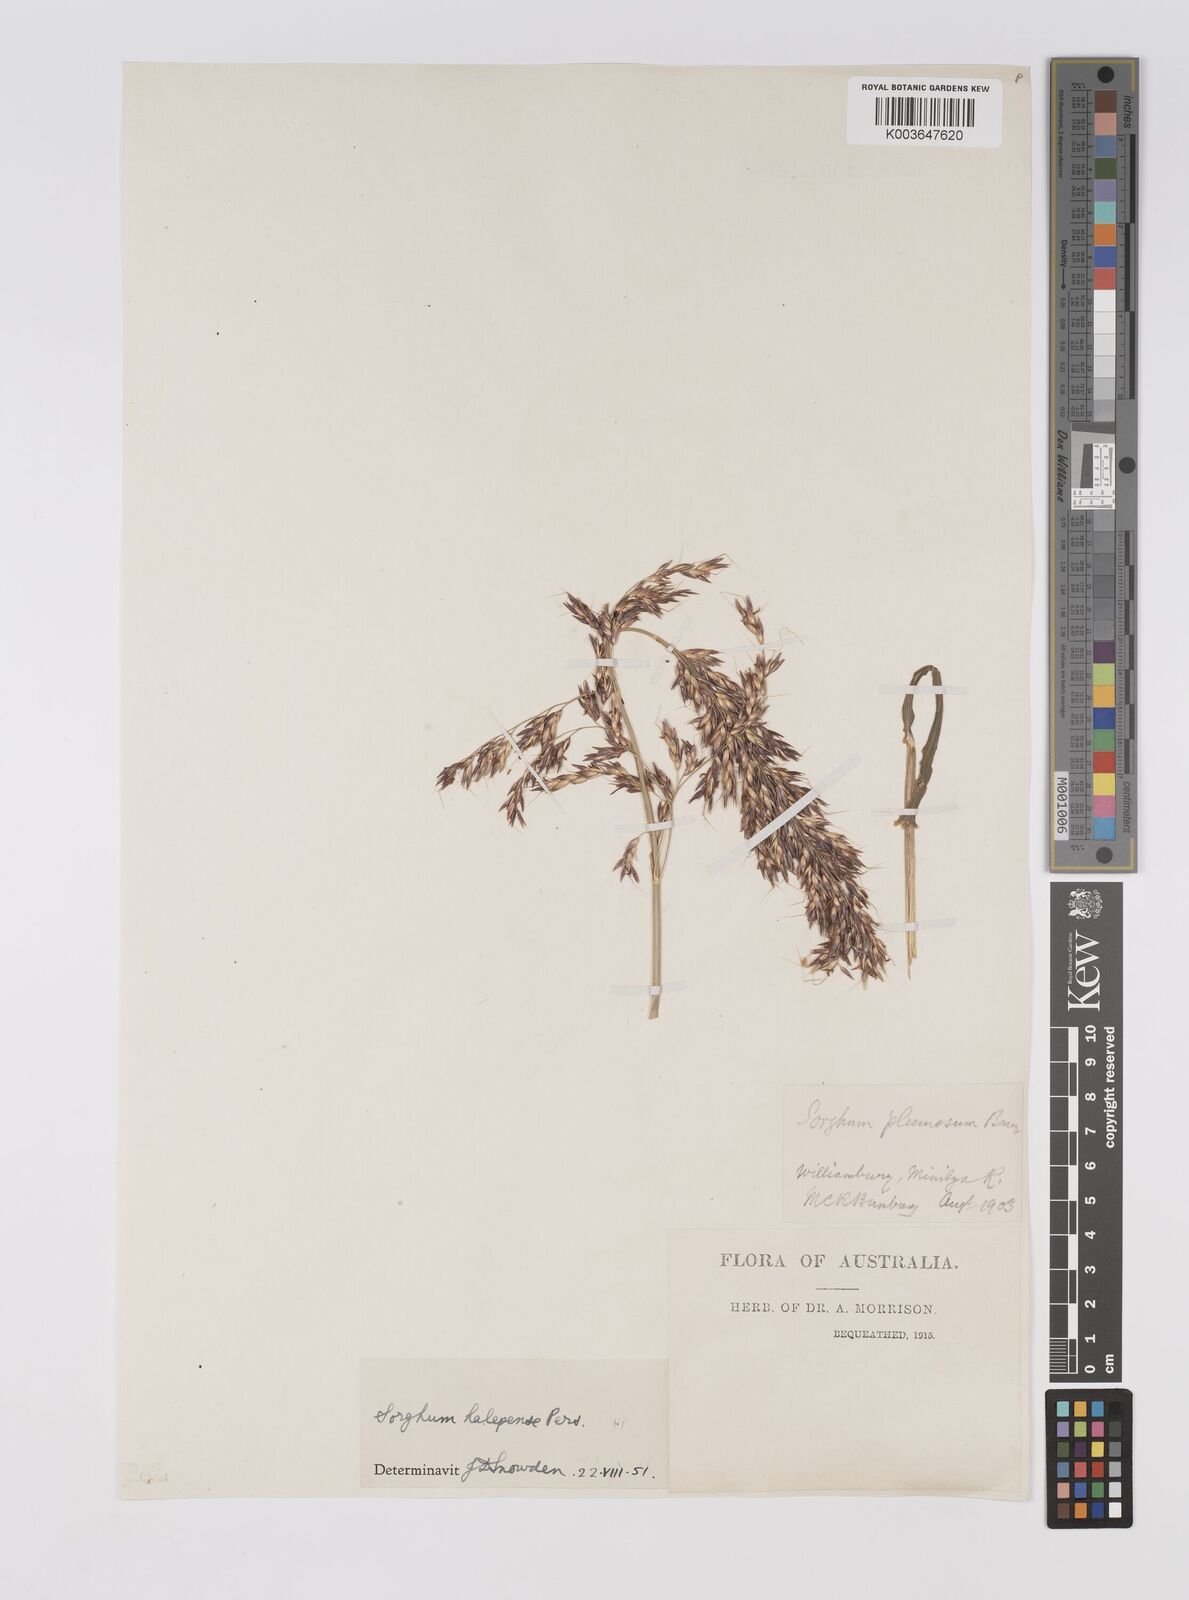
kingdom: Plantae
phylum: Tracheophyta
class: Liliopsida
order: Poales
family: Poaceae
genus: Sorghum
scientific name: Sorghum halepense
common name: Johnson-grass
